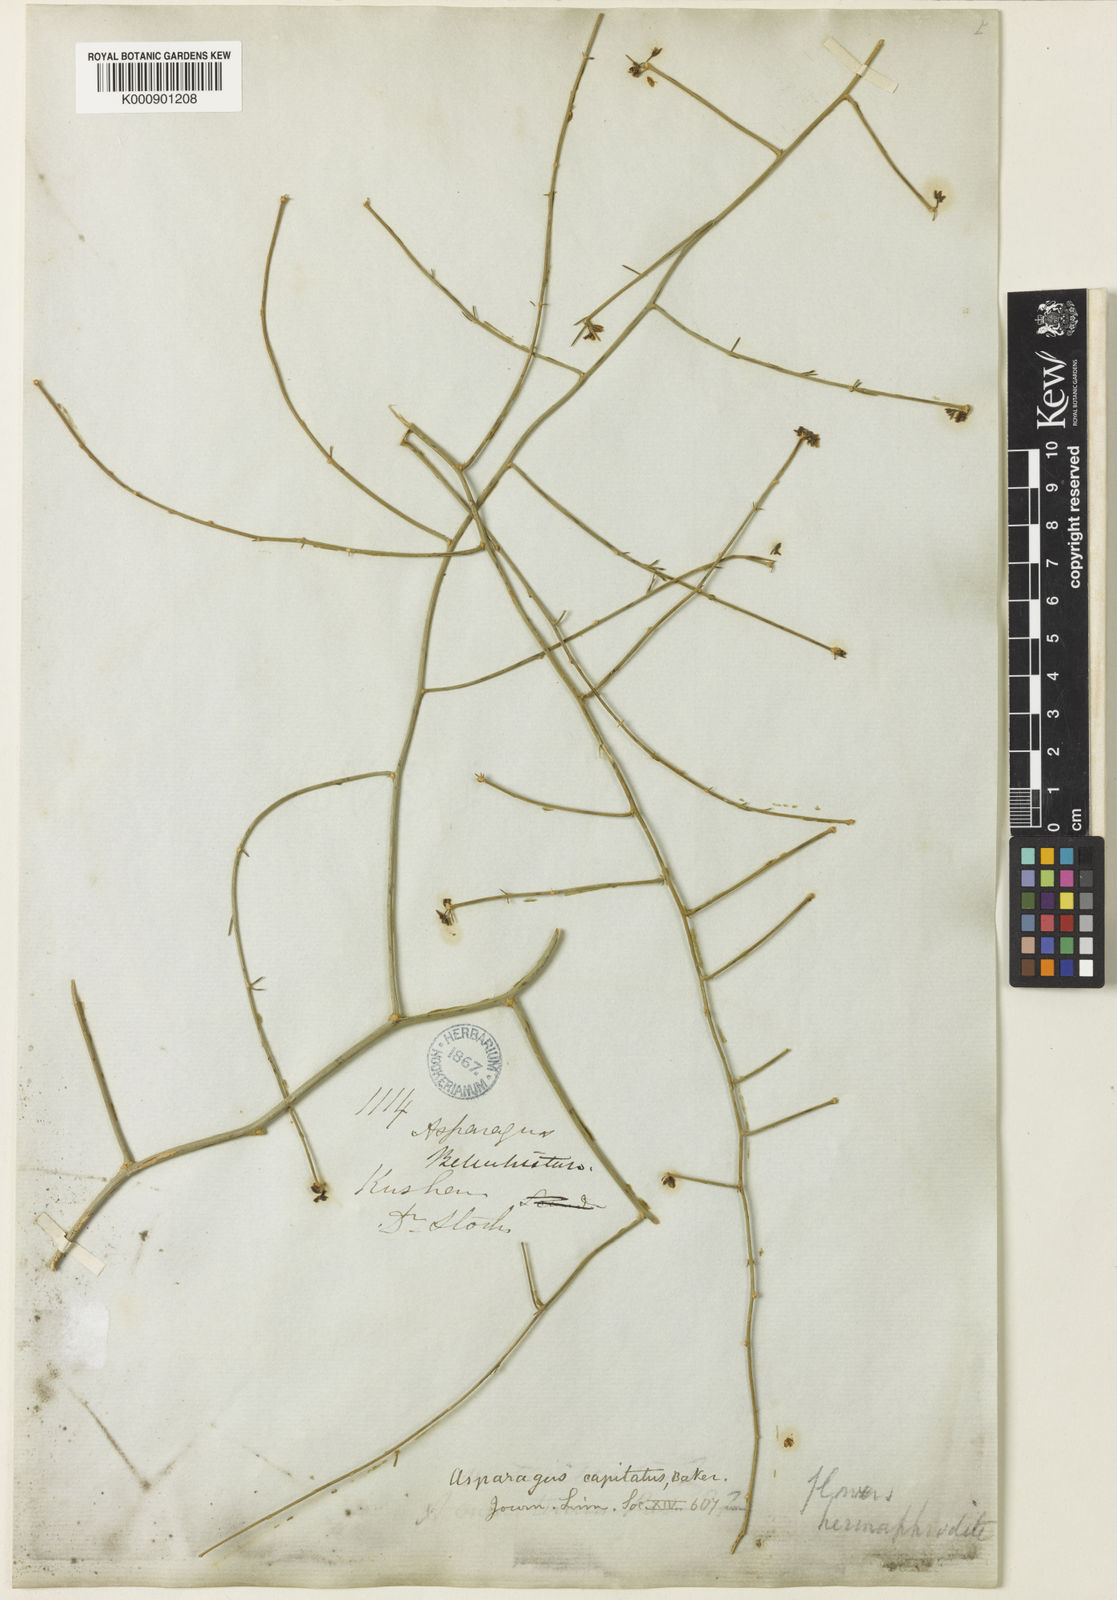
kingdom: Plantae
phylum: Tracheophyta
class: Liliopsida
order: Asparagales
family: Asparagaceae
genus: Asparagus
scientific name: Asparagus capitatus
